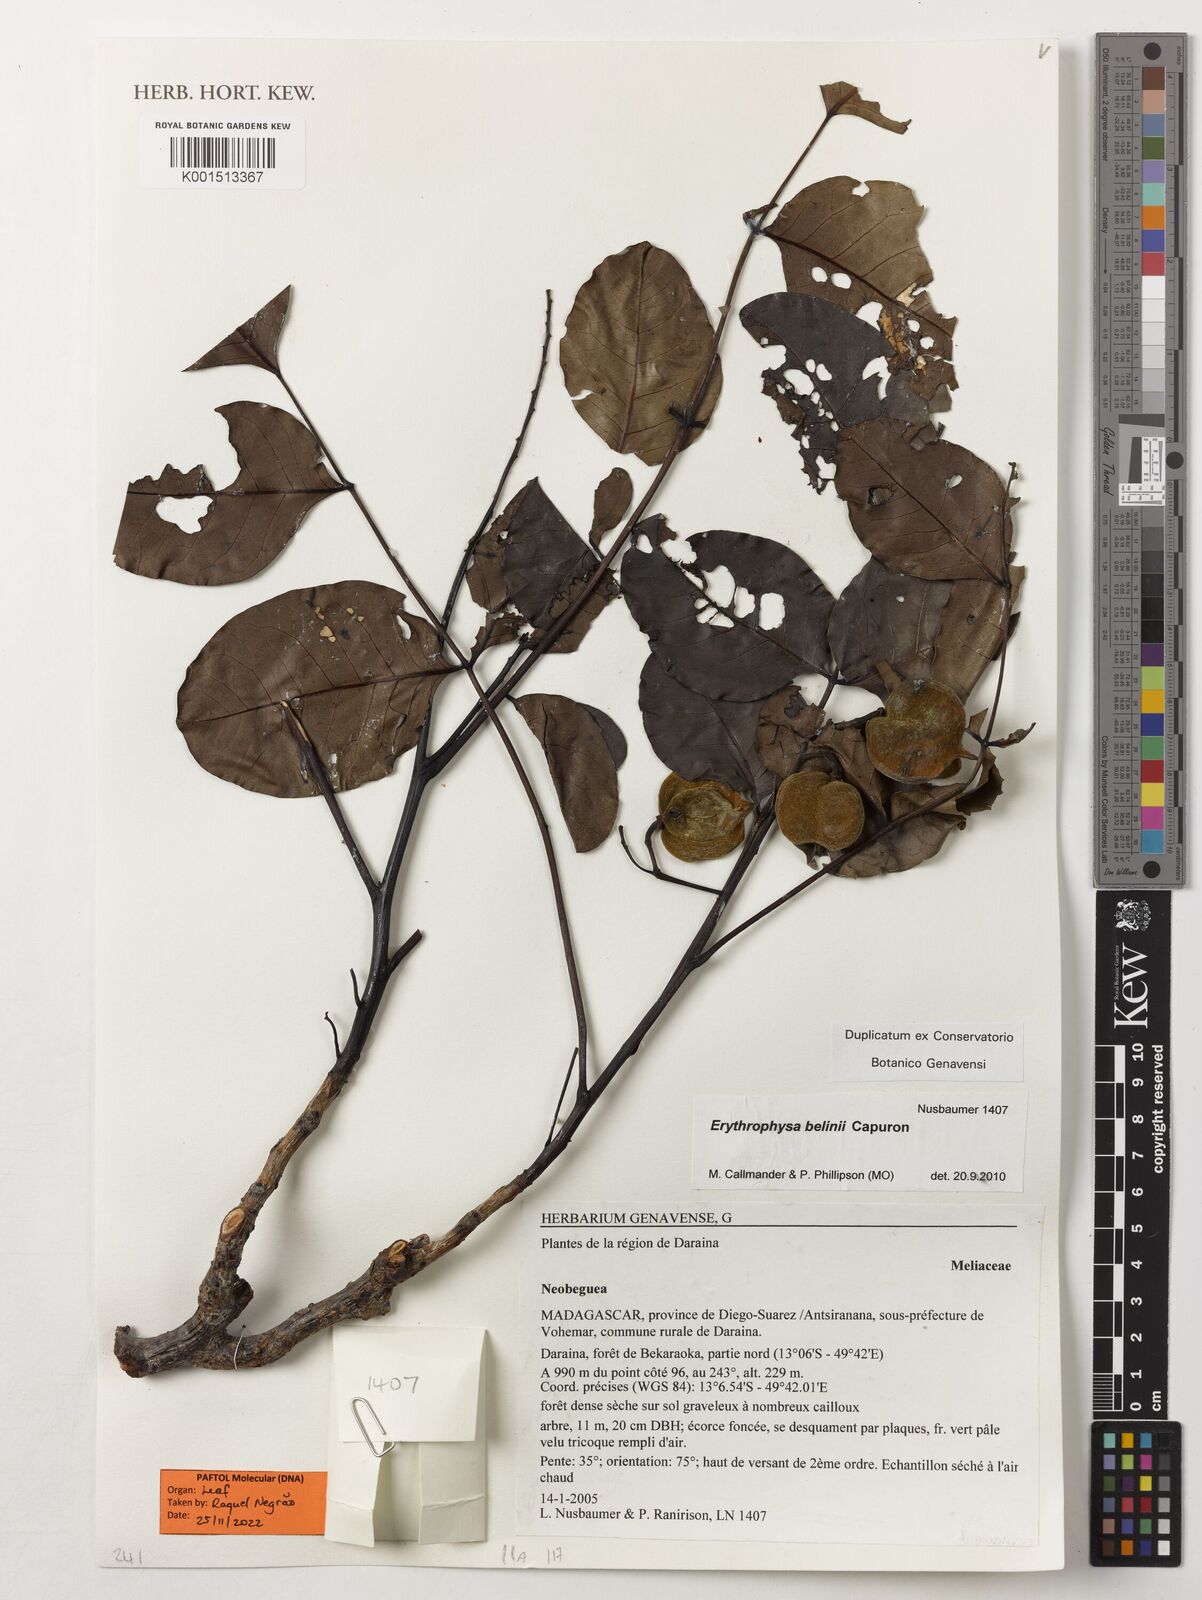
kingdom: Plantae
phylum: Tracheophyta
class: Magnoliopsida
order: Sapindales
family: Sapindaceae
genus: Erythrophysa
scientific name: Erythrophysa belinii
